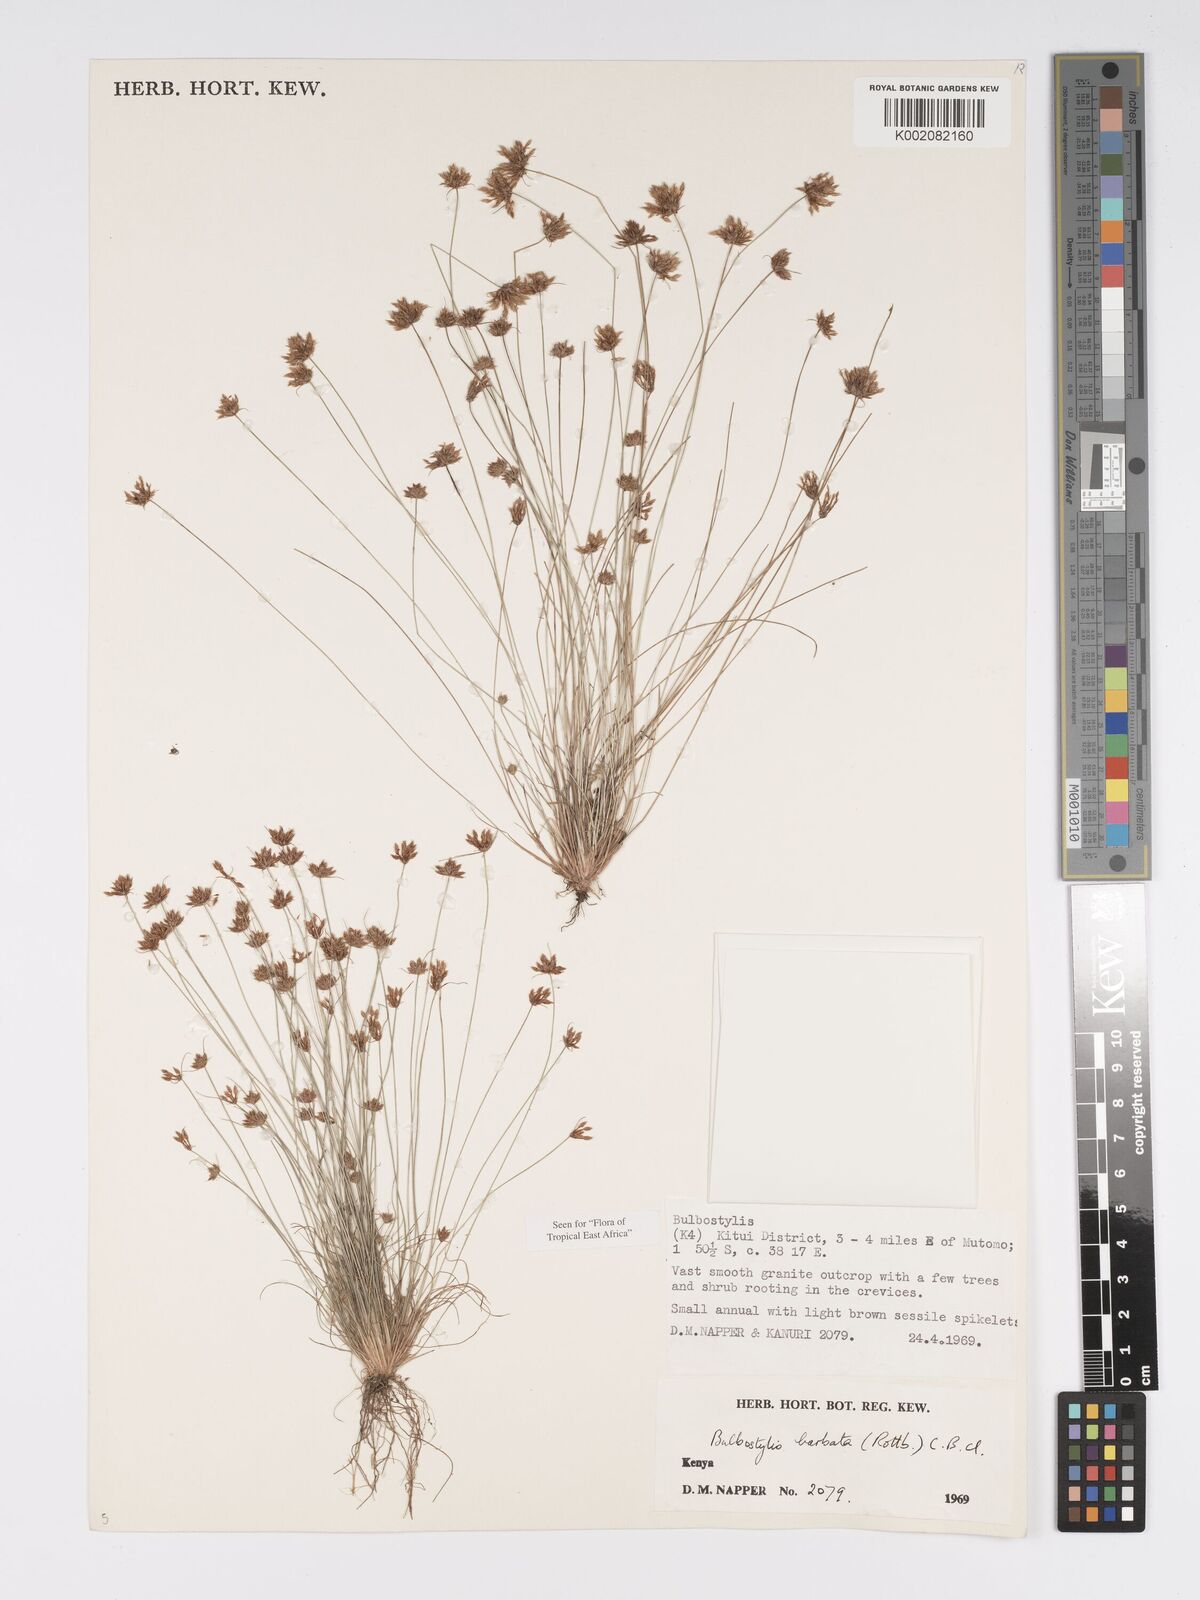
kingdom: Plantae
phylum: Tracheophyta
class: Liliopsida
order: Poales
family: Cyperaceae
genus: Bulbostylis
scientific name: Bulbostylis barbata
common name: Watergrass
